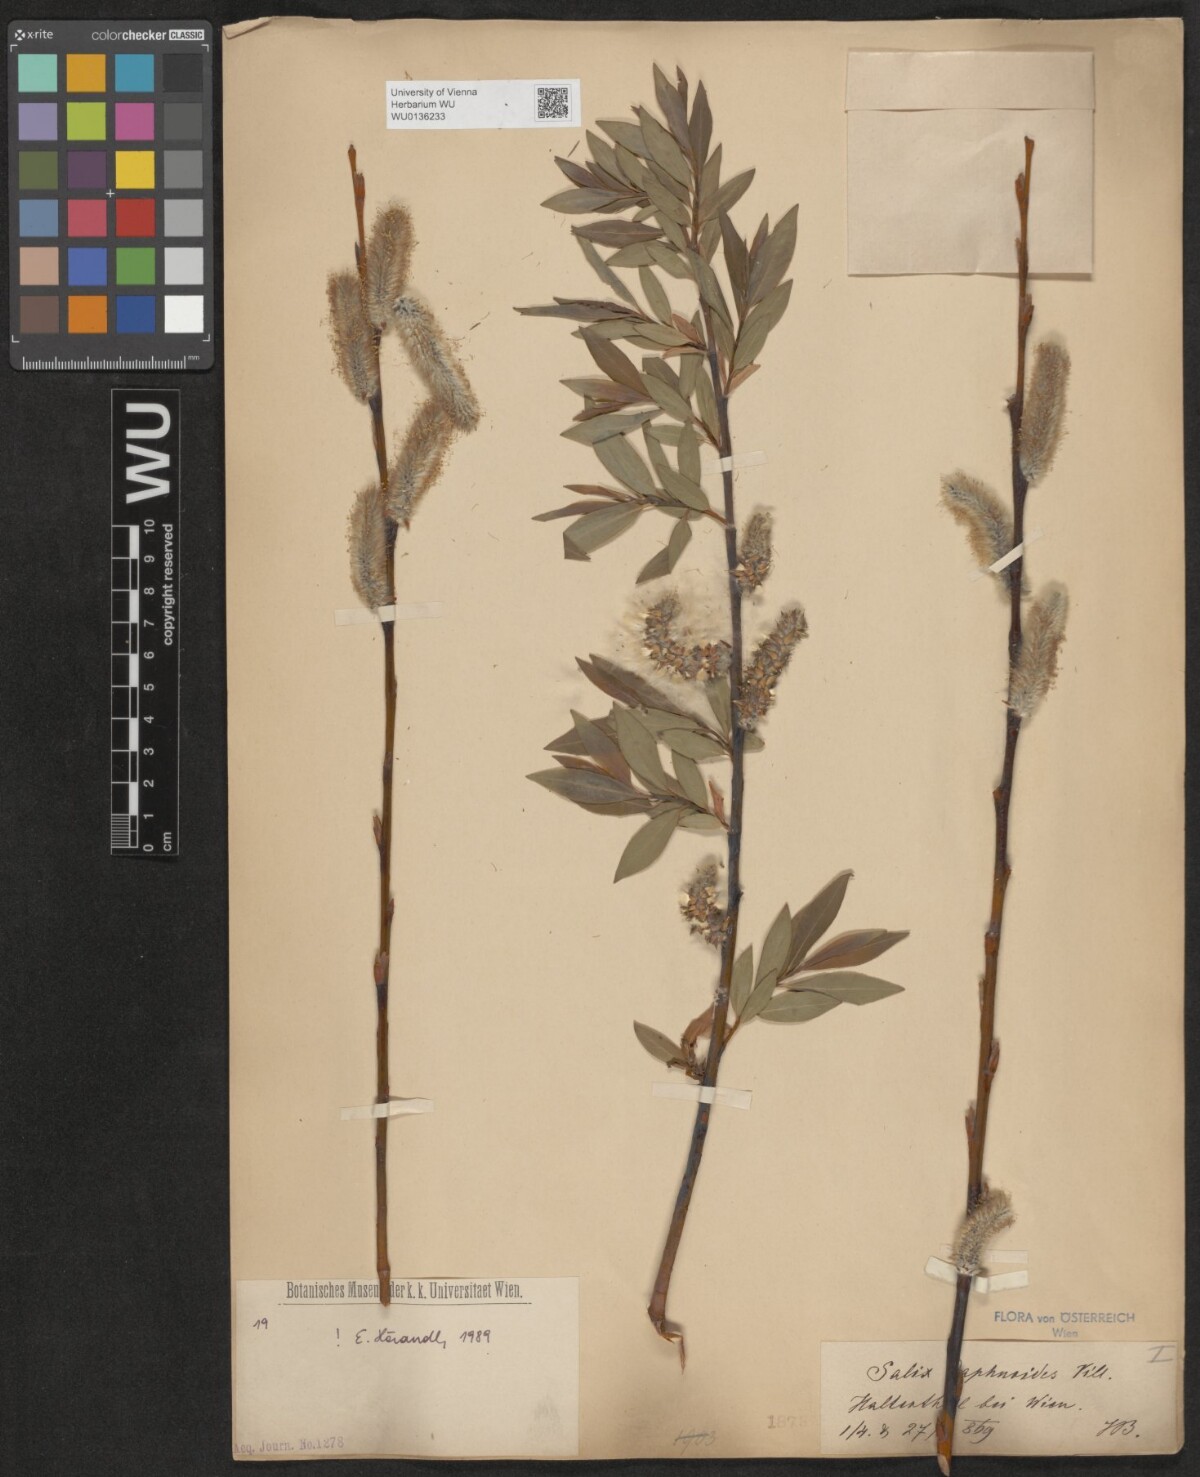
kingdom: Plantae
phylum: Tracheophyta
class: Magnoliopsida
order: Malpighiales
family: Salicaceae
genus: Salix
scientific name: Salix daphnoides
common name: European violet-willow
